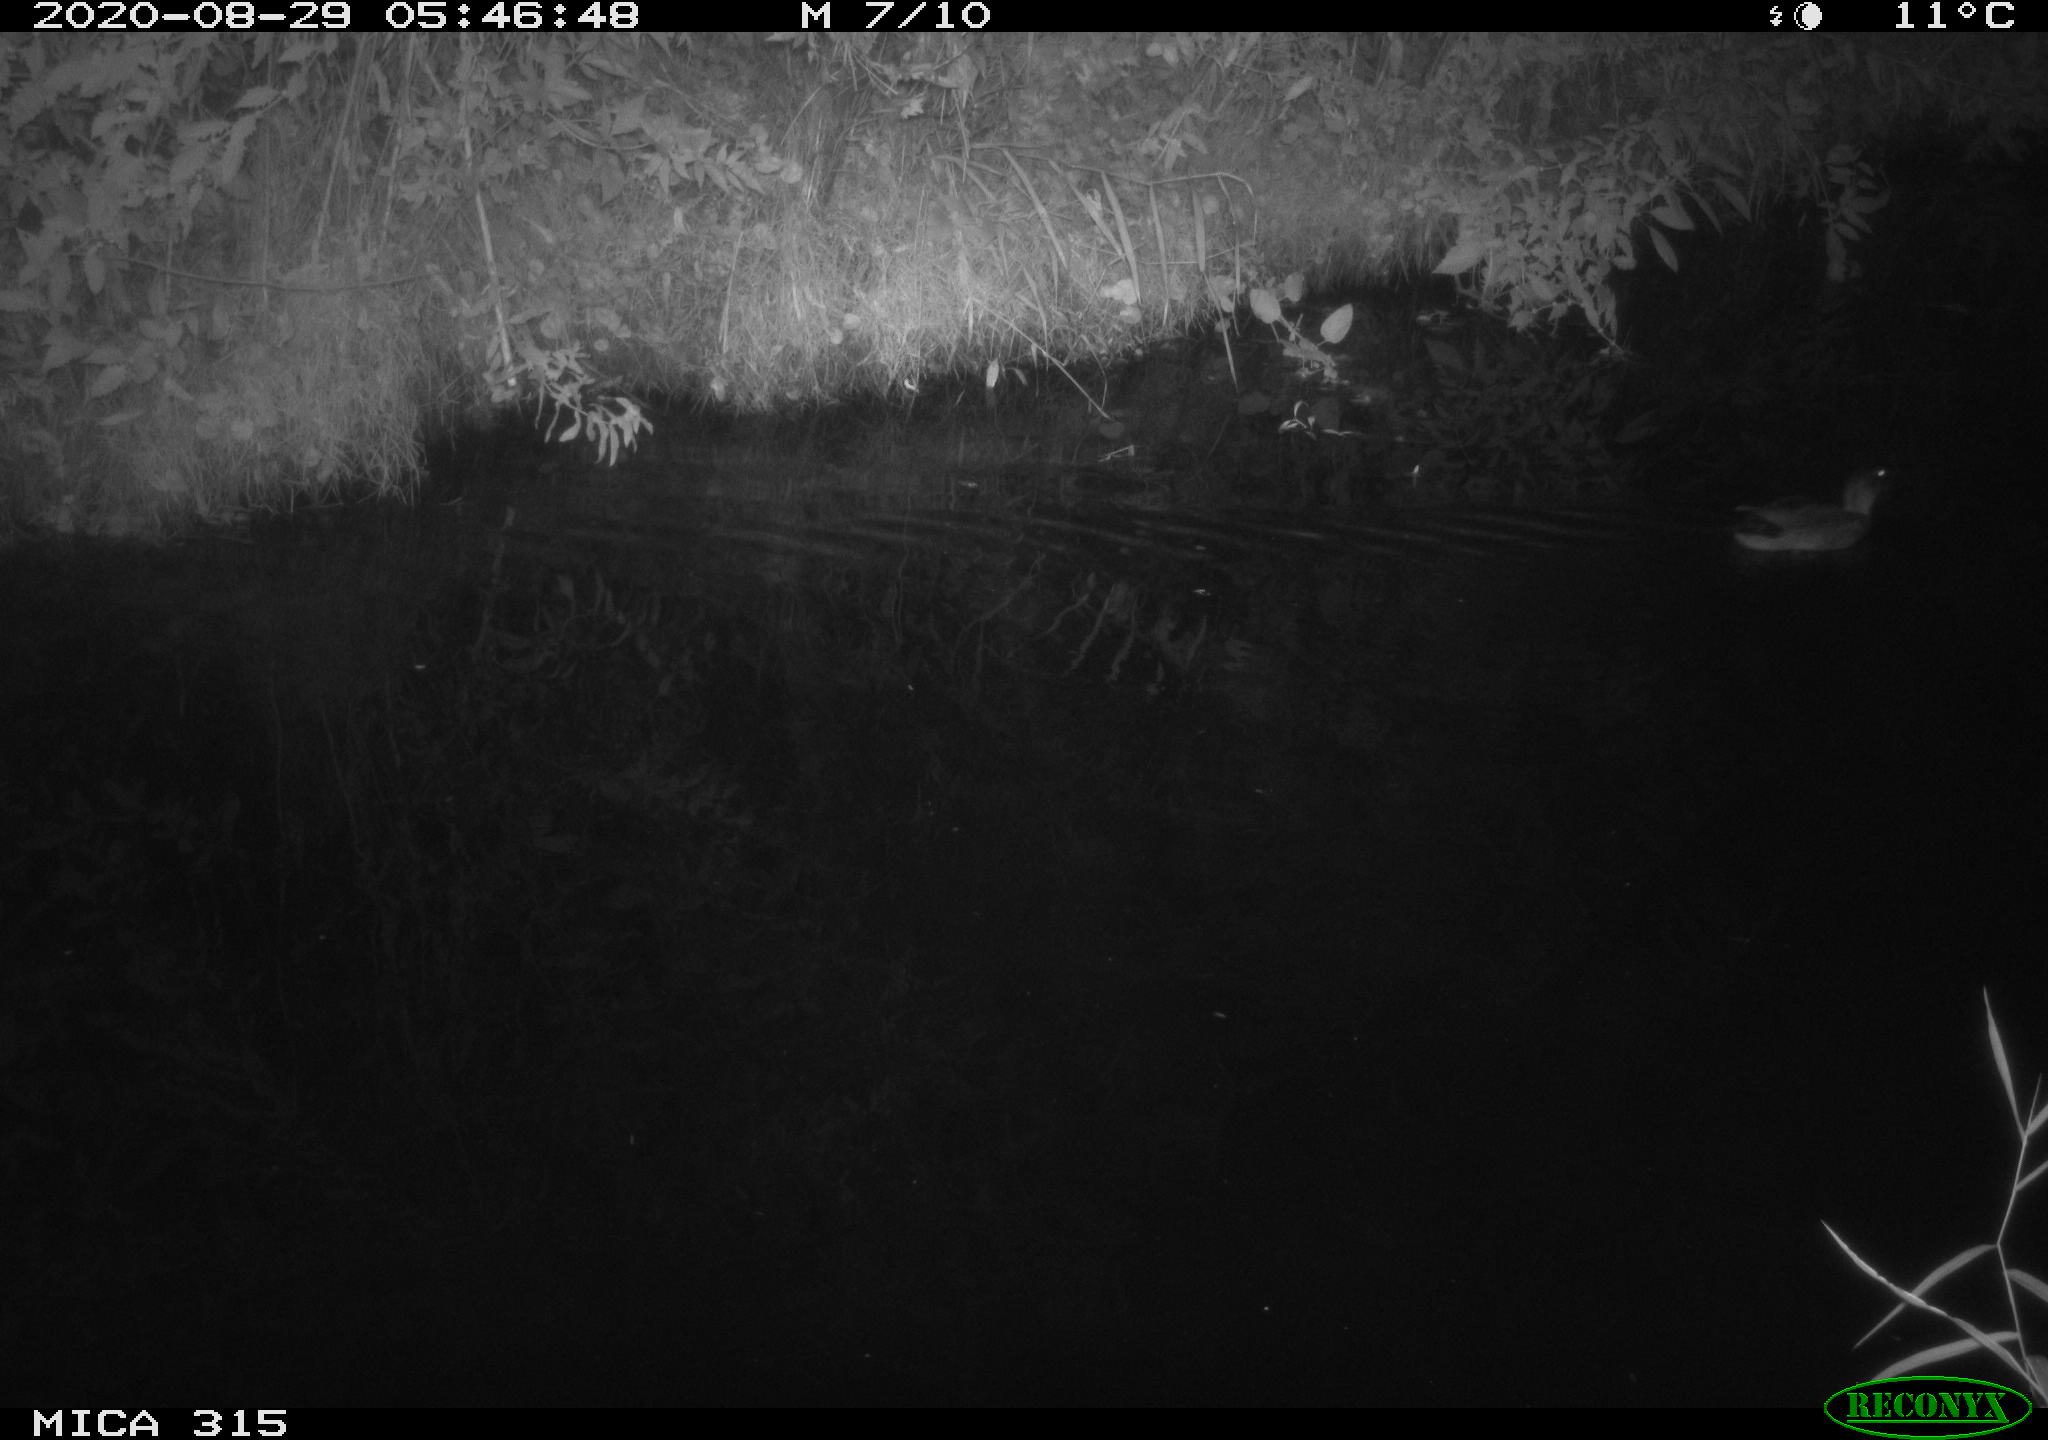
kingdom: Animalia
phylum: Chordata
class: Aves
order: Anseriformes
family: Anatidae
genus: Anas
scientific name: Anas platyrhynchos
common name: Mallard
